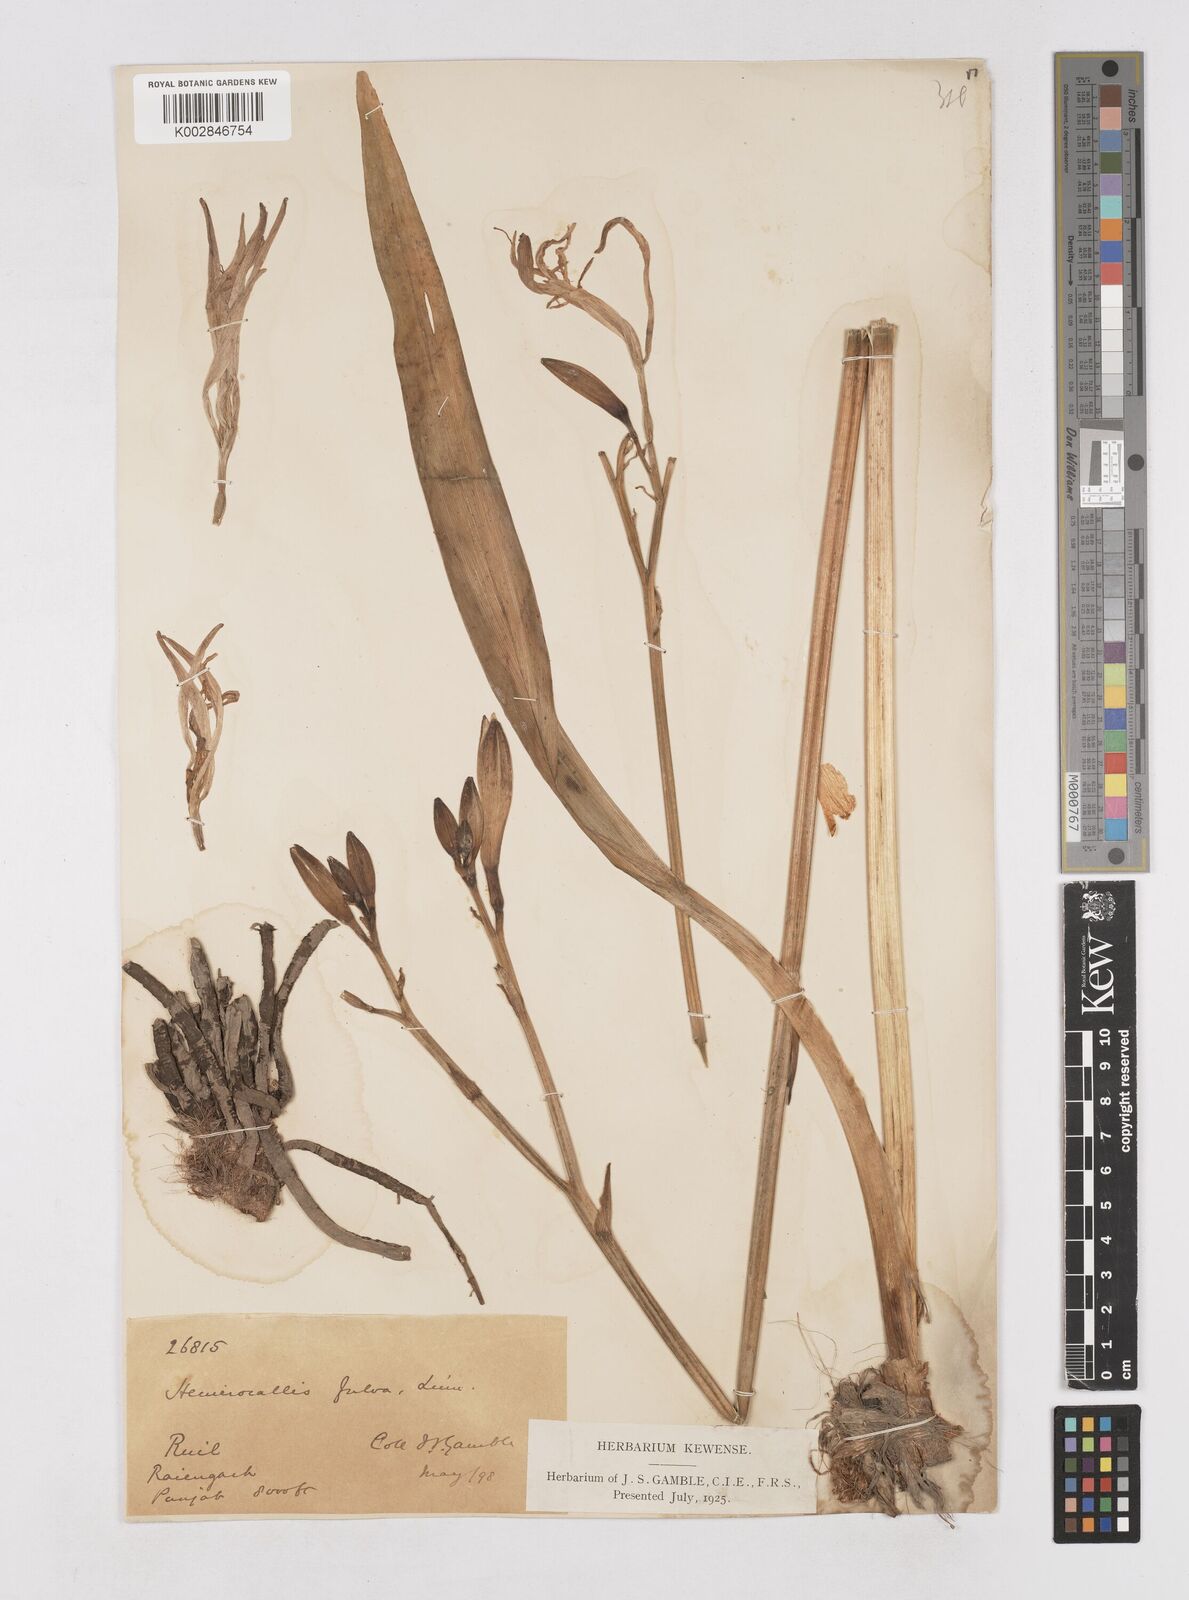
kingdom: Plantae
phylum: Tracheophyta
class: Liliopsida
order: Asparagales
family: Asphodelaceae
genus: Hemerocallis
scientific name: Hemerocallis fulva
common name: Orange day-lily
